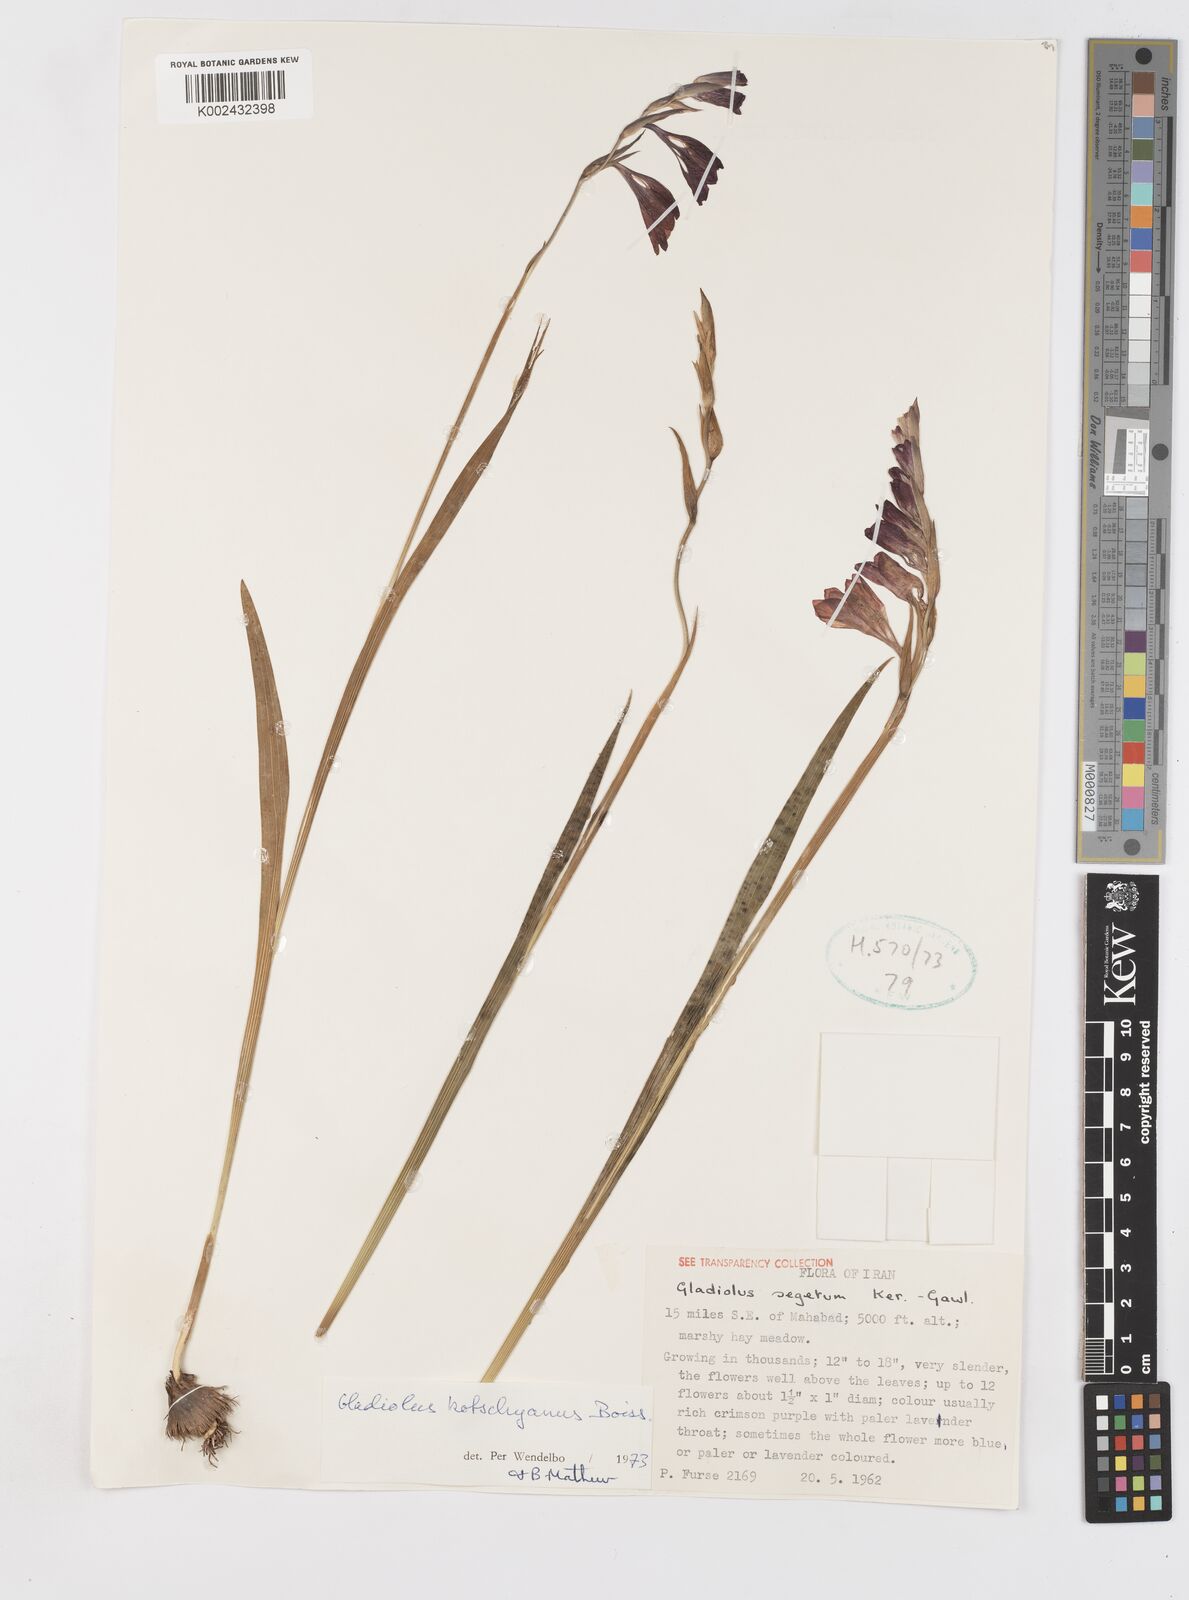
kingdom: Plantae
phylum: Tracheophyta
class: Liliopsida
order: Asparagales
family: Iridaceae
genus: Gladiolus
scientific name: Gladiolus kotschyanus
